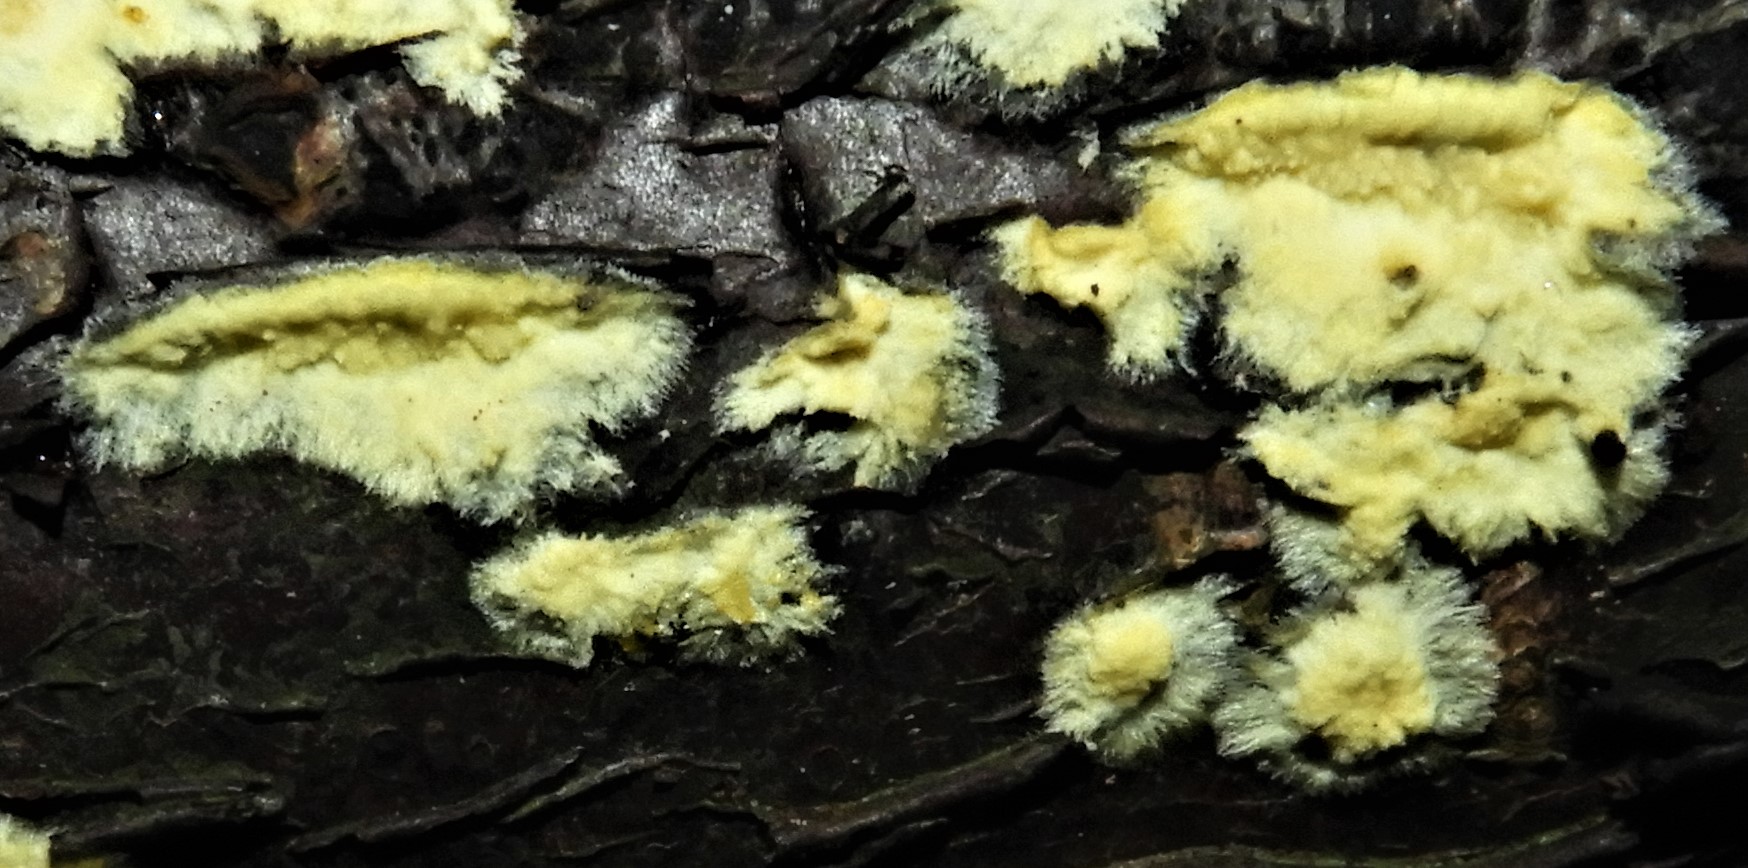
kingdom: Fungi
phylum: Basidiomycota
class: Agaricomycetes
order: Corticiales
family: Corticiaceae
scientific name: Corticiaceae
